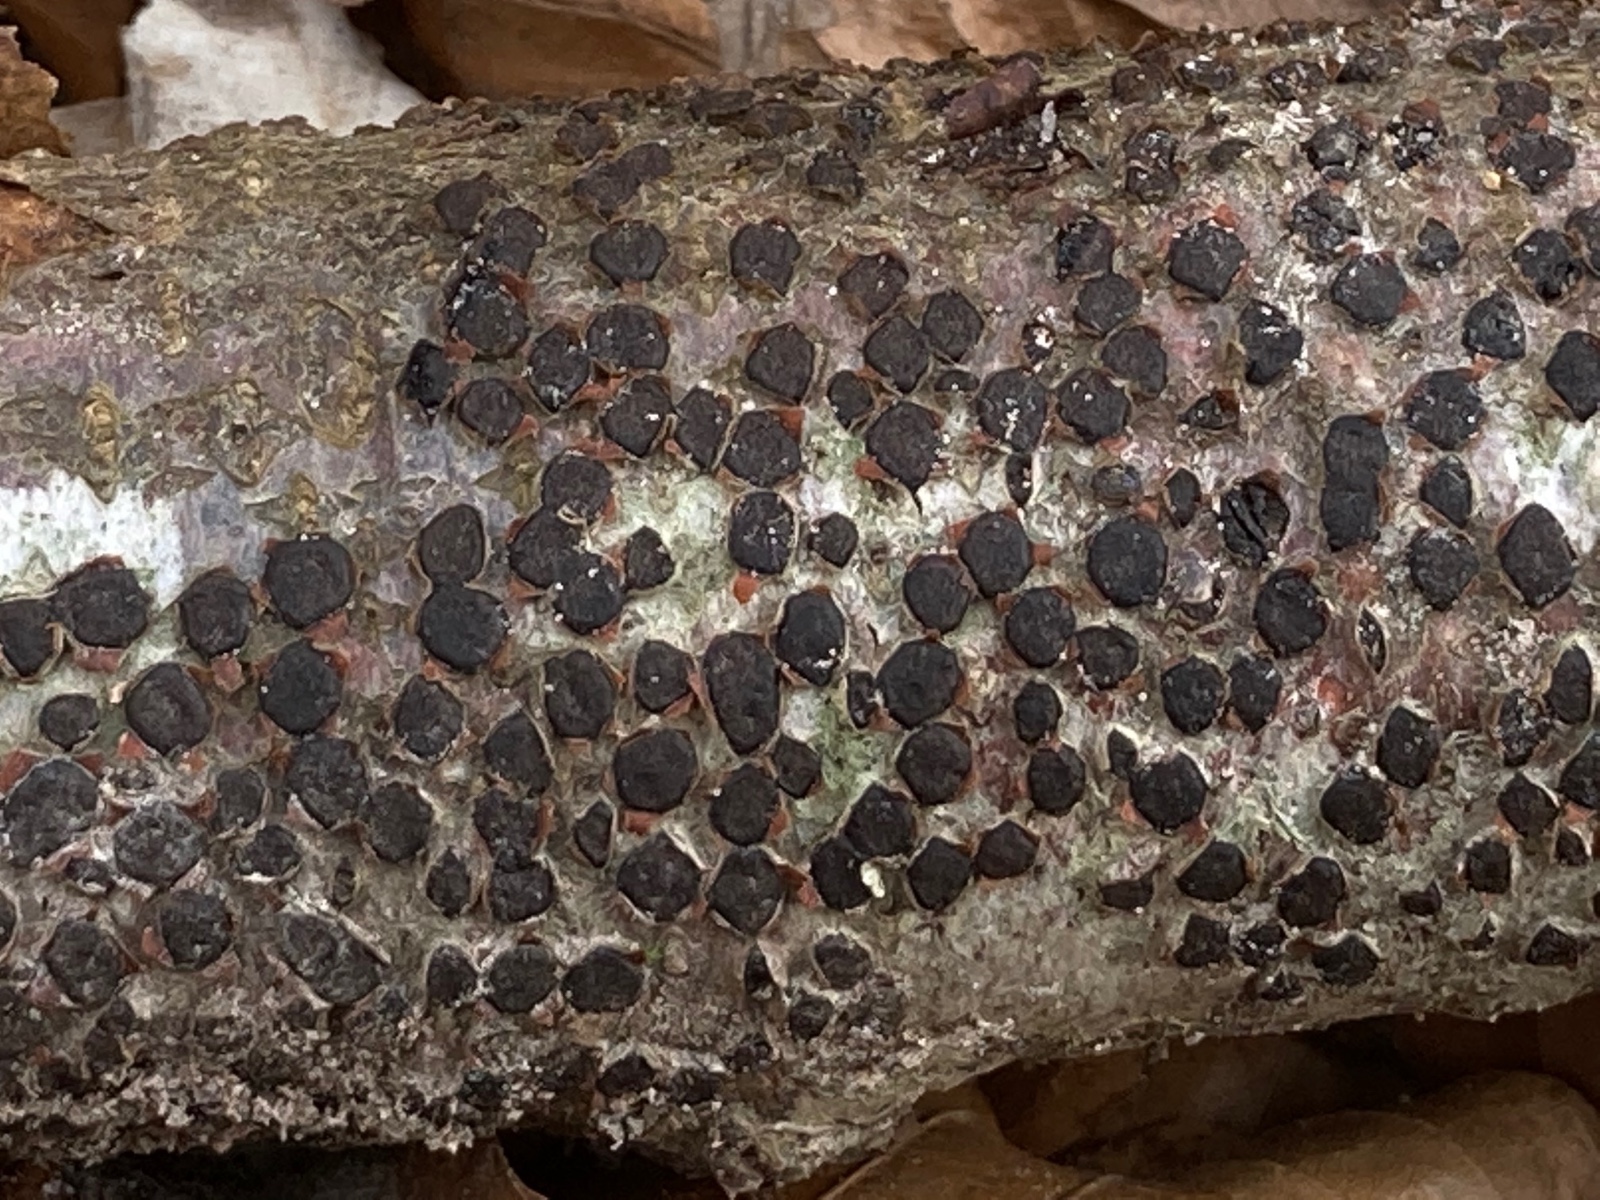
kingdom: Fungi
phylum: Ascomycota
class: Sordariomycetes
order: Xylariales
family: Diatrypaceae
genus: Diatrype
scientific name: Diatrype disciformis
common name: kant-kulskorpe
